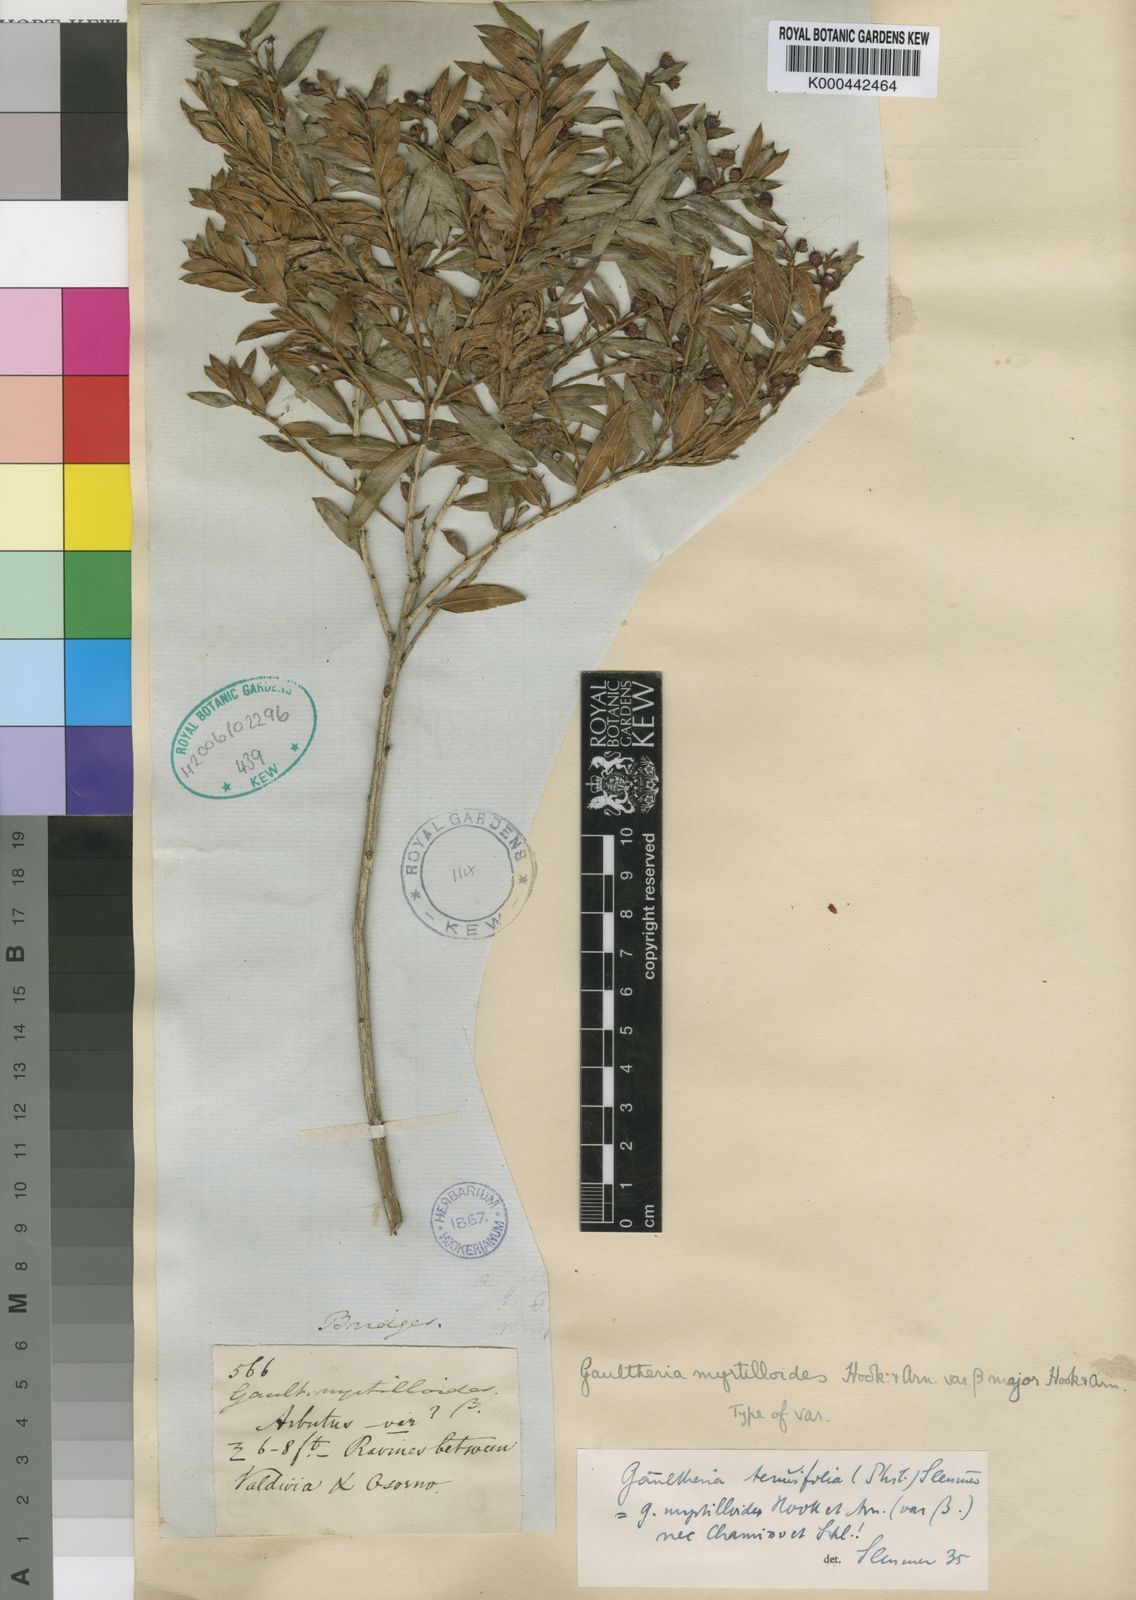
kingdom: Plantae
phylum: Tracheophyta
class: Magnoliopsida
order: Ericales
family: Ericaceae
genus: Gaultheria
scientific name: Gaultheria tenuifolia
